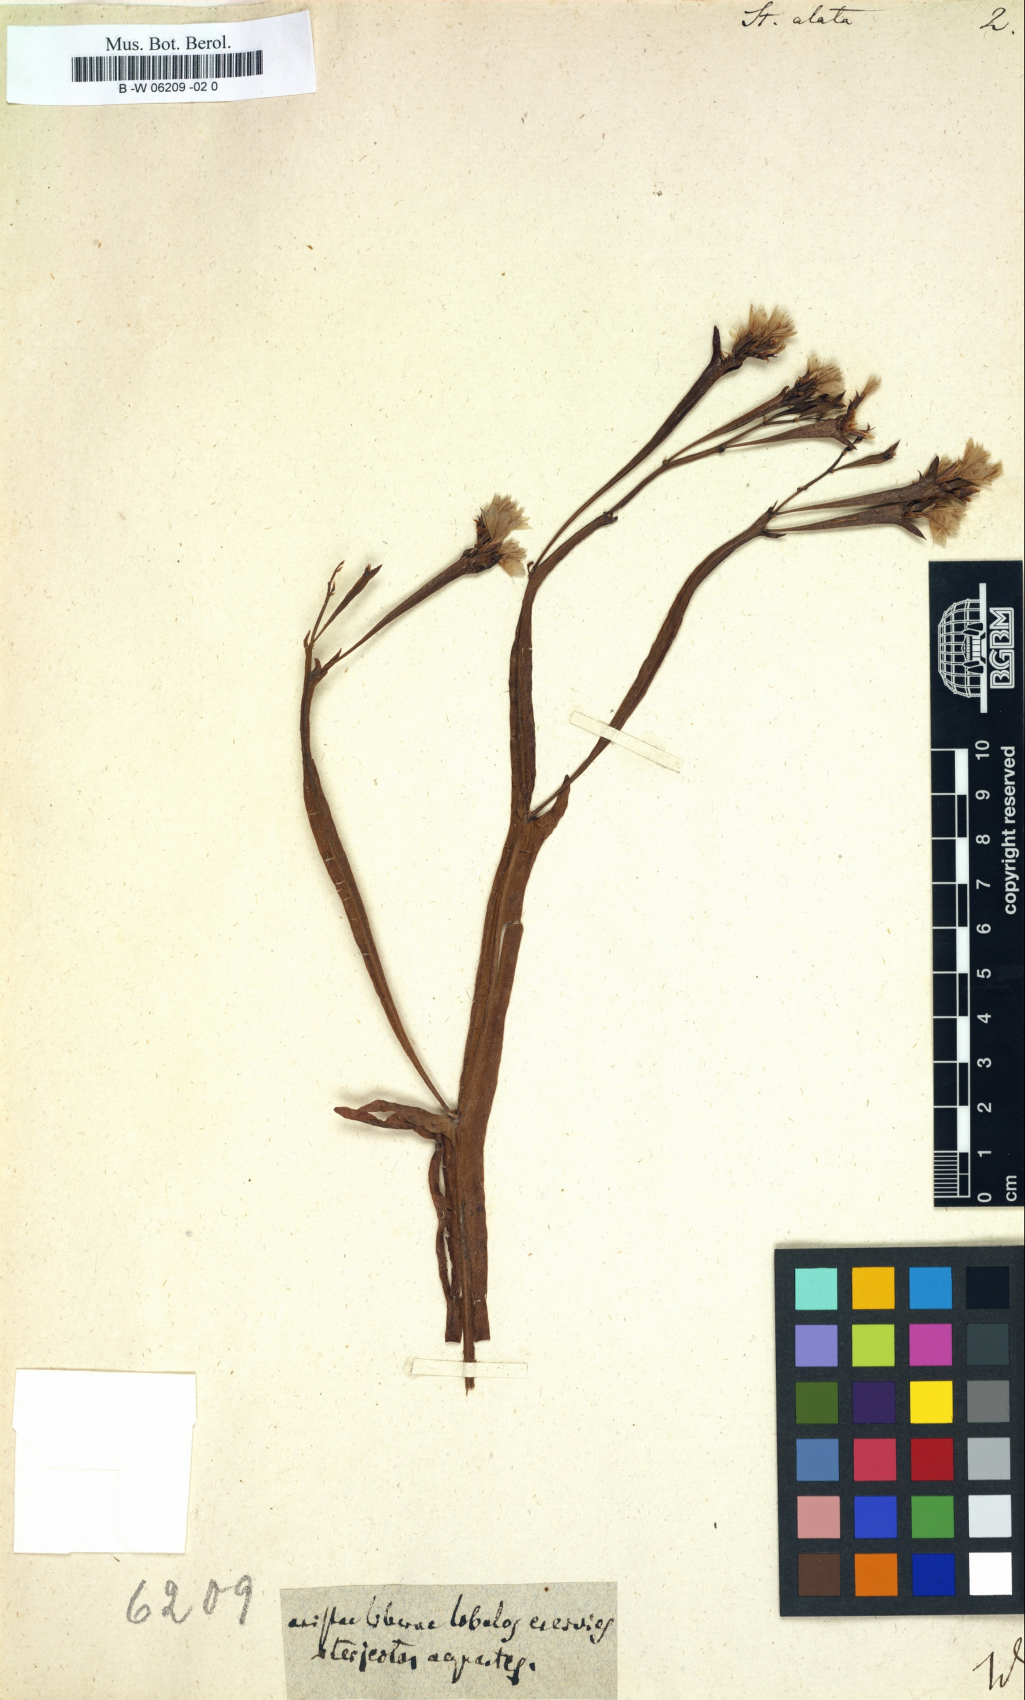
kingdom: Plantae
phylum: Tracheophyta
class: Magnoliopsida
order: Caryophyllales
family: Plumbaginaceae
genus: Limonium
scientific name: Limonium lobatum
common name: Winged sea-lavender
